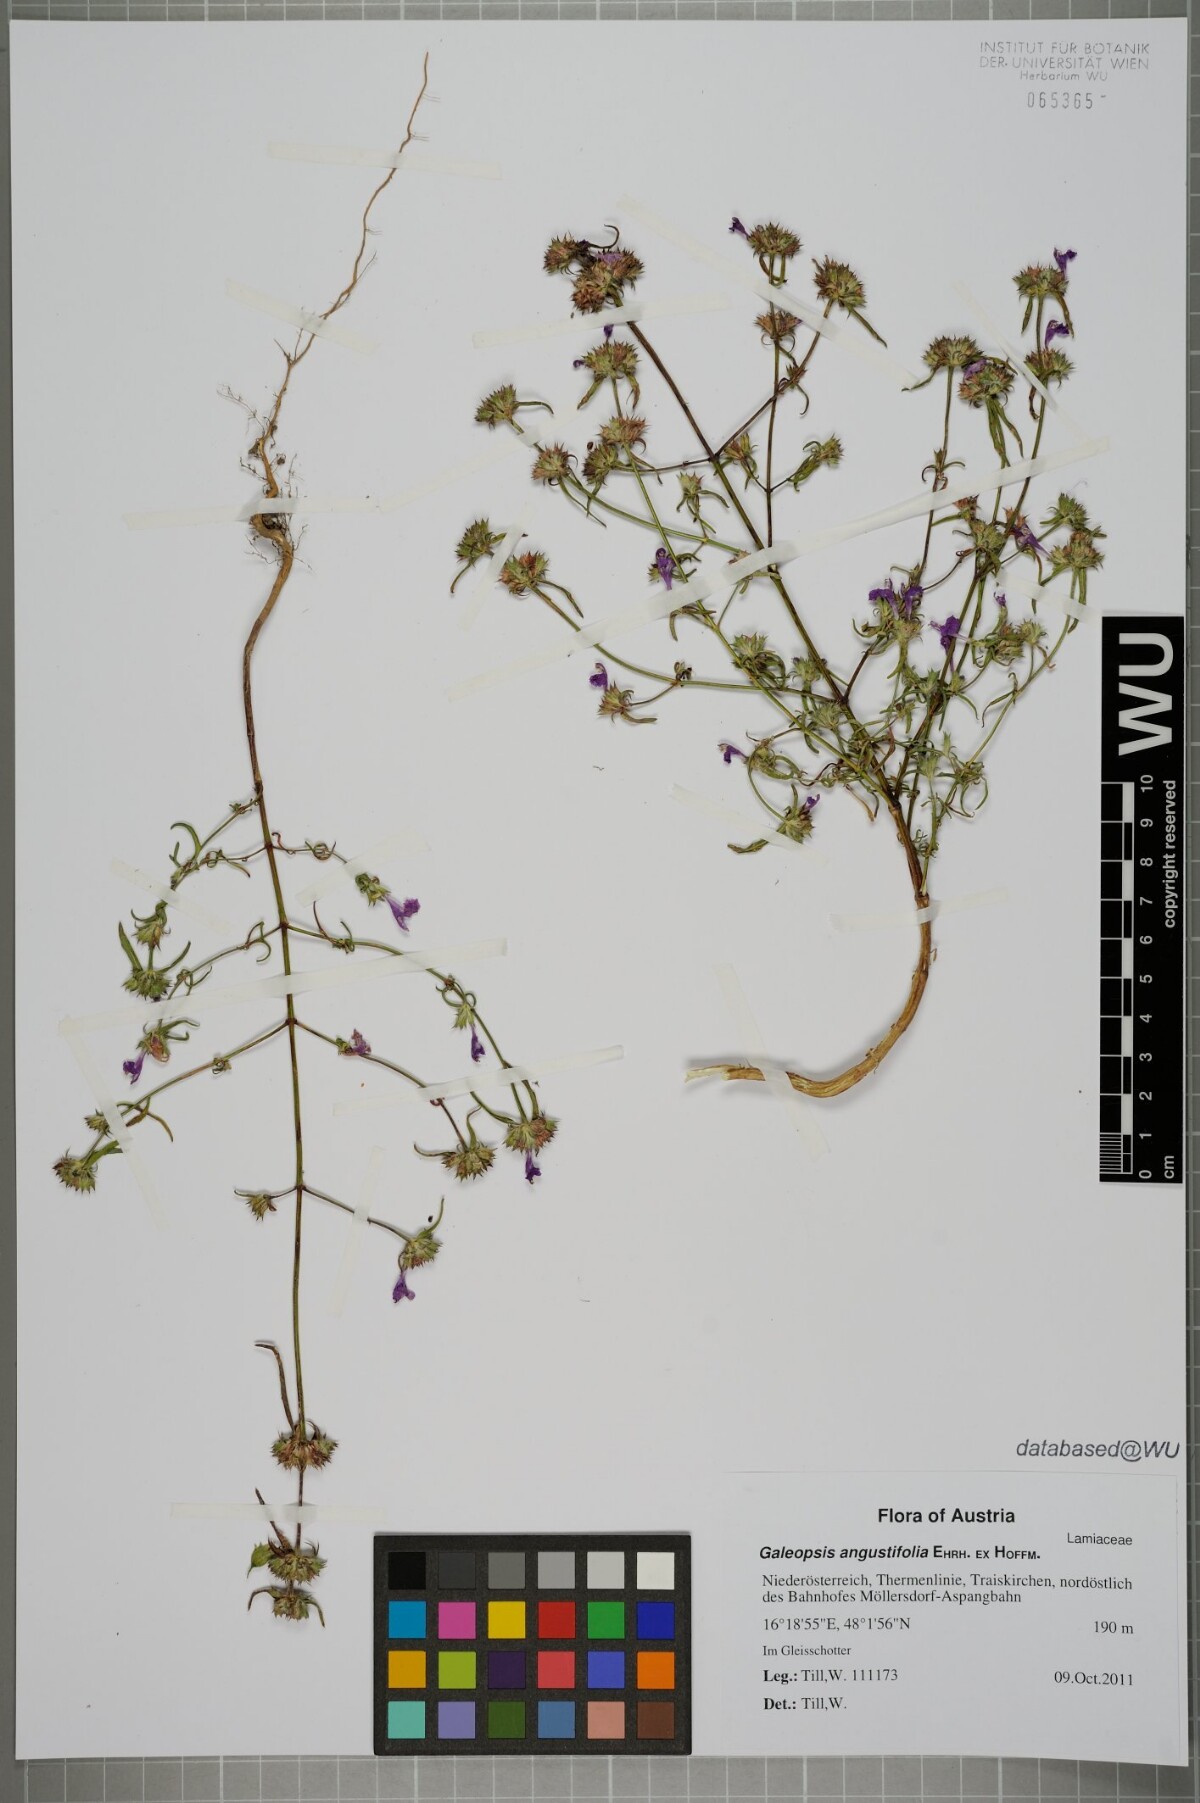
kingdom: Plantae
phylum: Tracheophyta
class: Magnoliopsida
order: Lamiales
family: Lamiaceae
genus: Galeopsis
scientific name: Galeopsis angustifolia
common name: Red hemp-nettle
